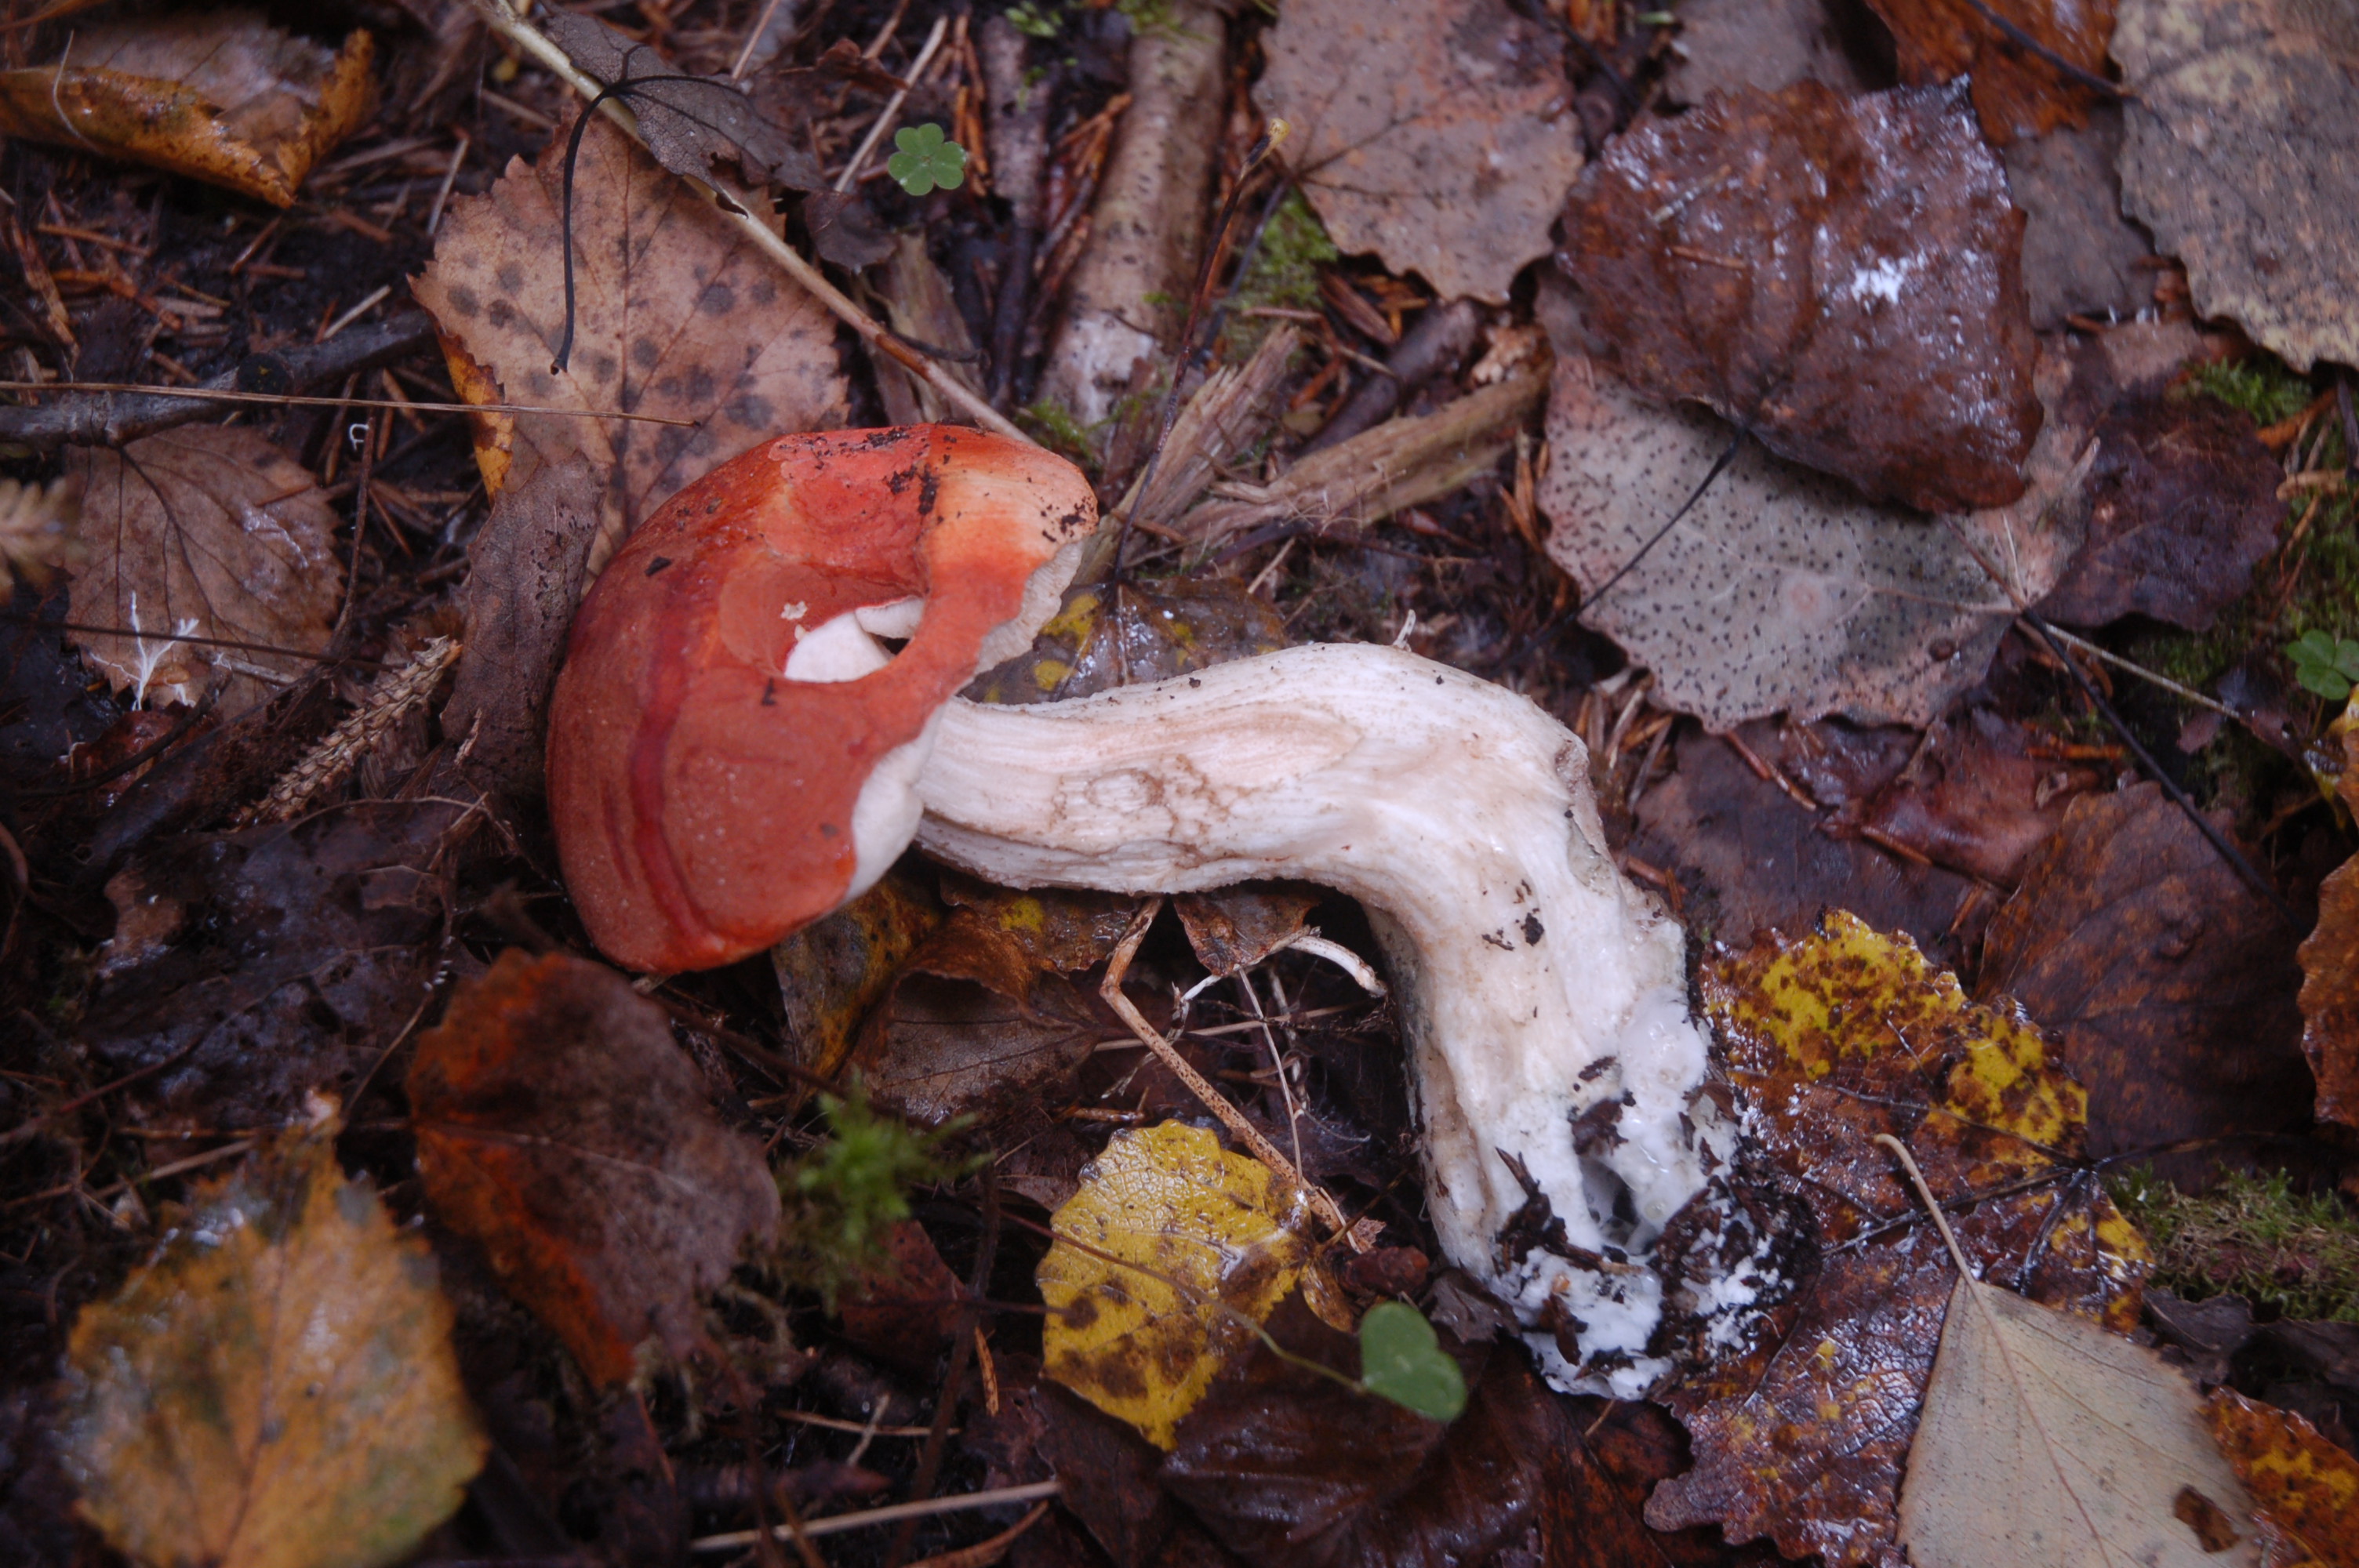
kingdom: Fungi
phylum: Basidiomycota
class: Agaricomycetes
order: Boletales
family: Boletaceae
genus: Leccinum
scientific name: Leccinum albostipitatum
